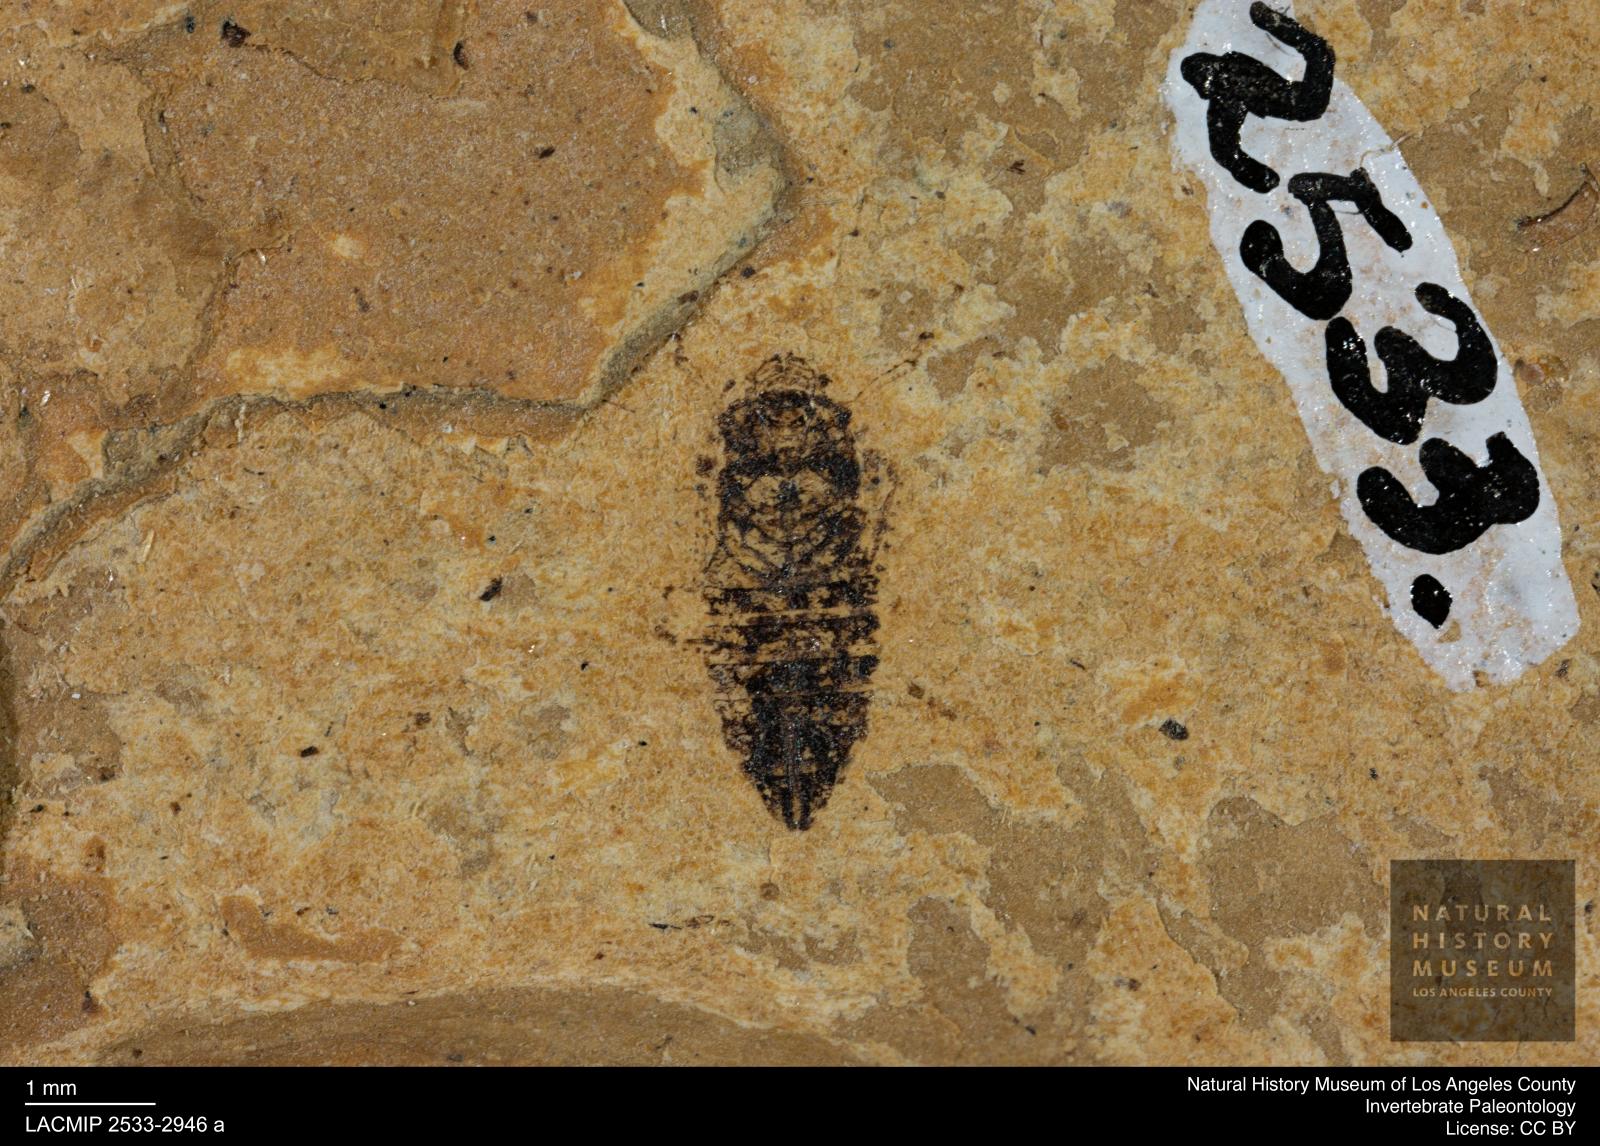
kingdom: Animalia
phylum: Arthropoda
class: Insecta
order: Hemiptera
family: Cicadellidae
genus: Thamnotettix
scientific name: Thamnotettix
